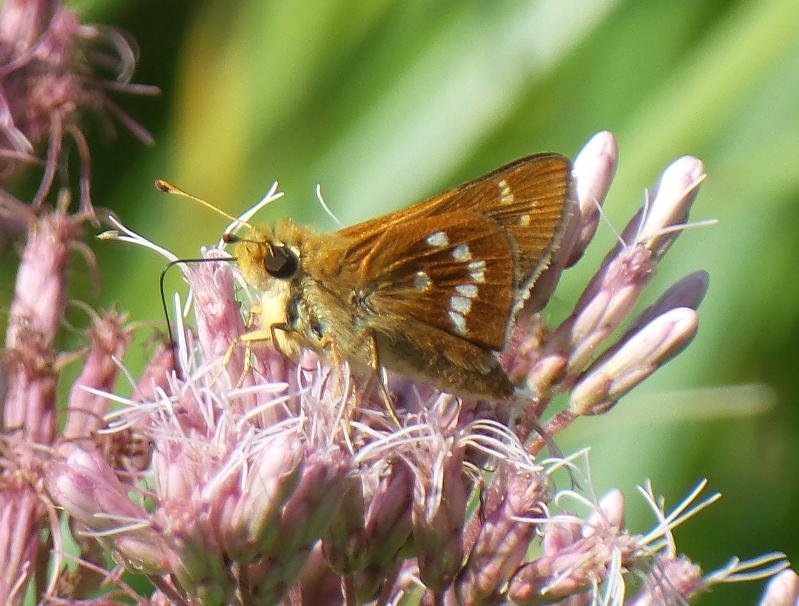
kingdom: Animalia
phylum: Arthropoda
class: Insecta
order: Lepidoptera
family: Hesperiidae
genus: Hesperia
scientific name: Hesperia leonardus
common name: Leonard's Skipper
